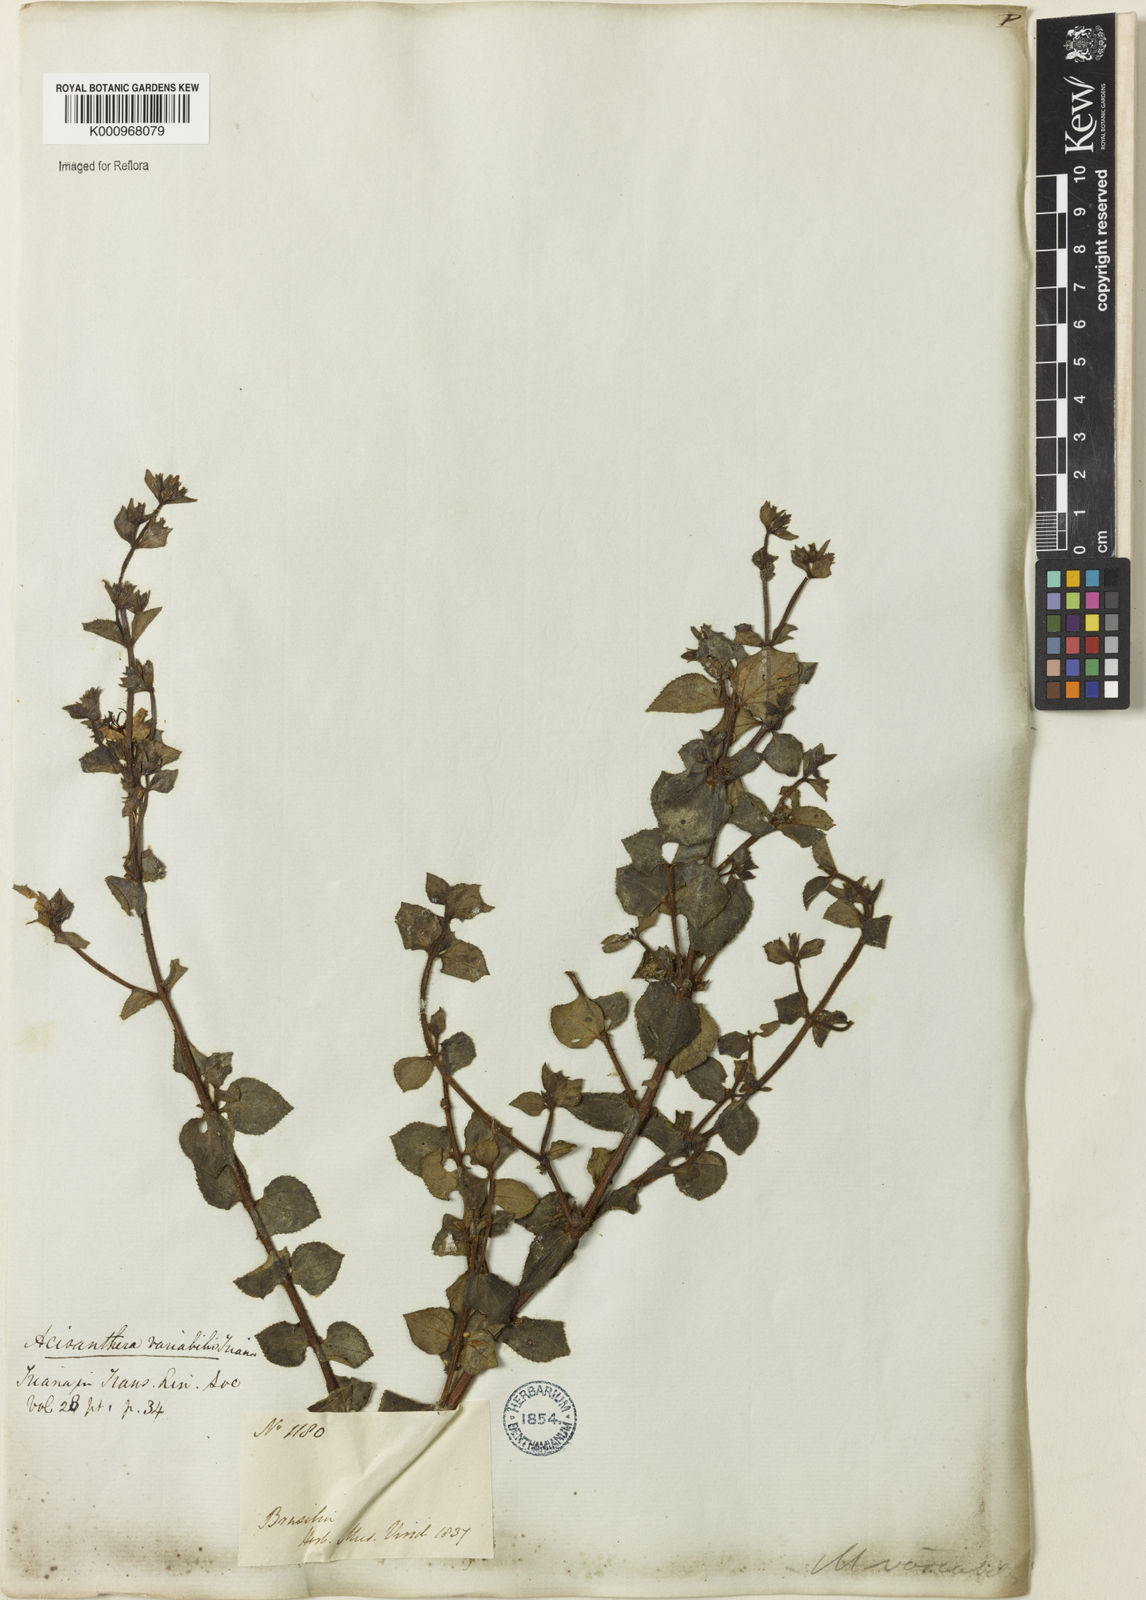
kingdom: Plantae
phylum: Tracheophyta
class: Magnoliopsida
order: Myrtales
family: Melastomataceae
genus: Acisanthera
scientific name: Acisanthera variabilis
